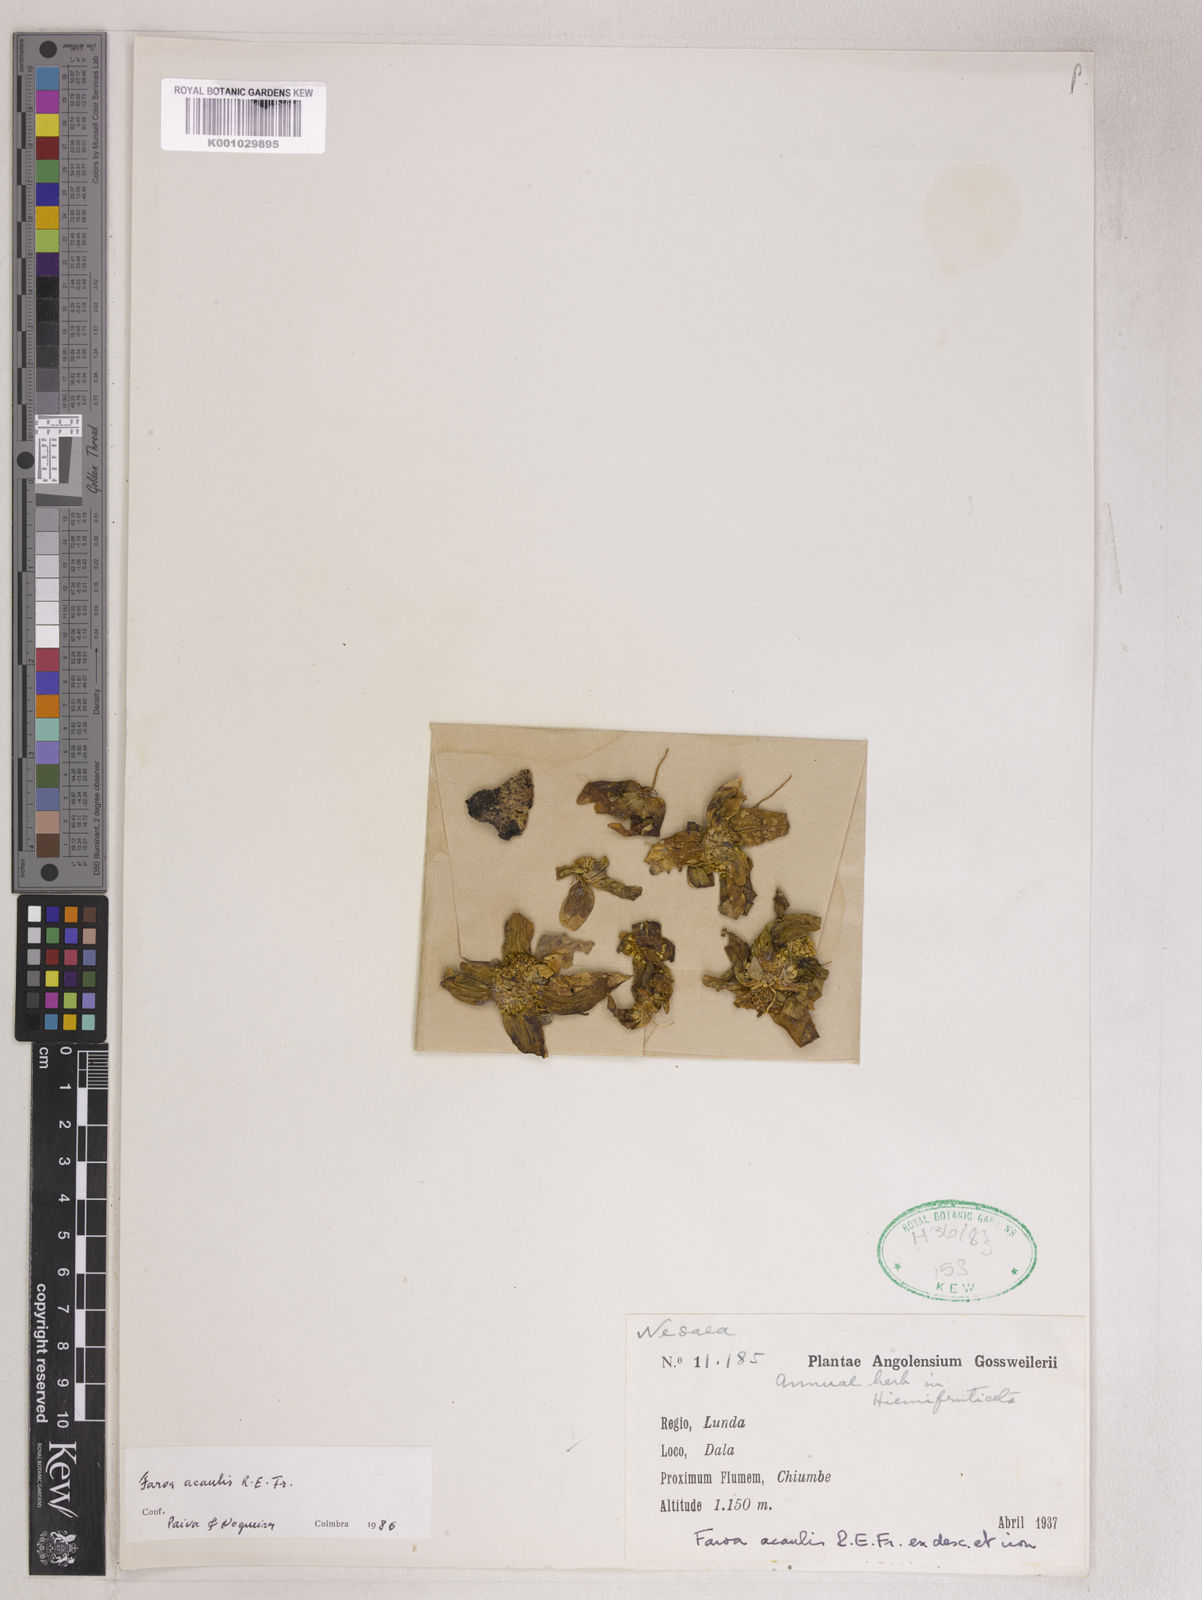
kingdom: Plantae
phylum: Tracheophyta
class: Magnoliopsida
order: Gentianales
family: Gentianaceae
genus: Faroa
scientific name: Faroa acaulis
